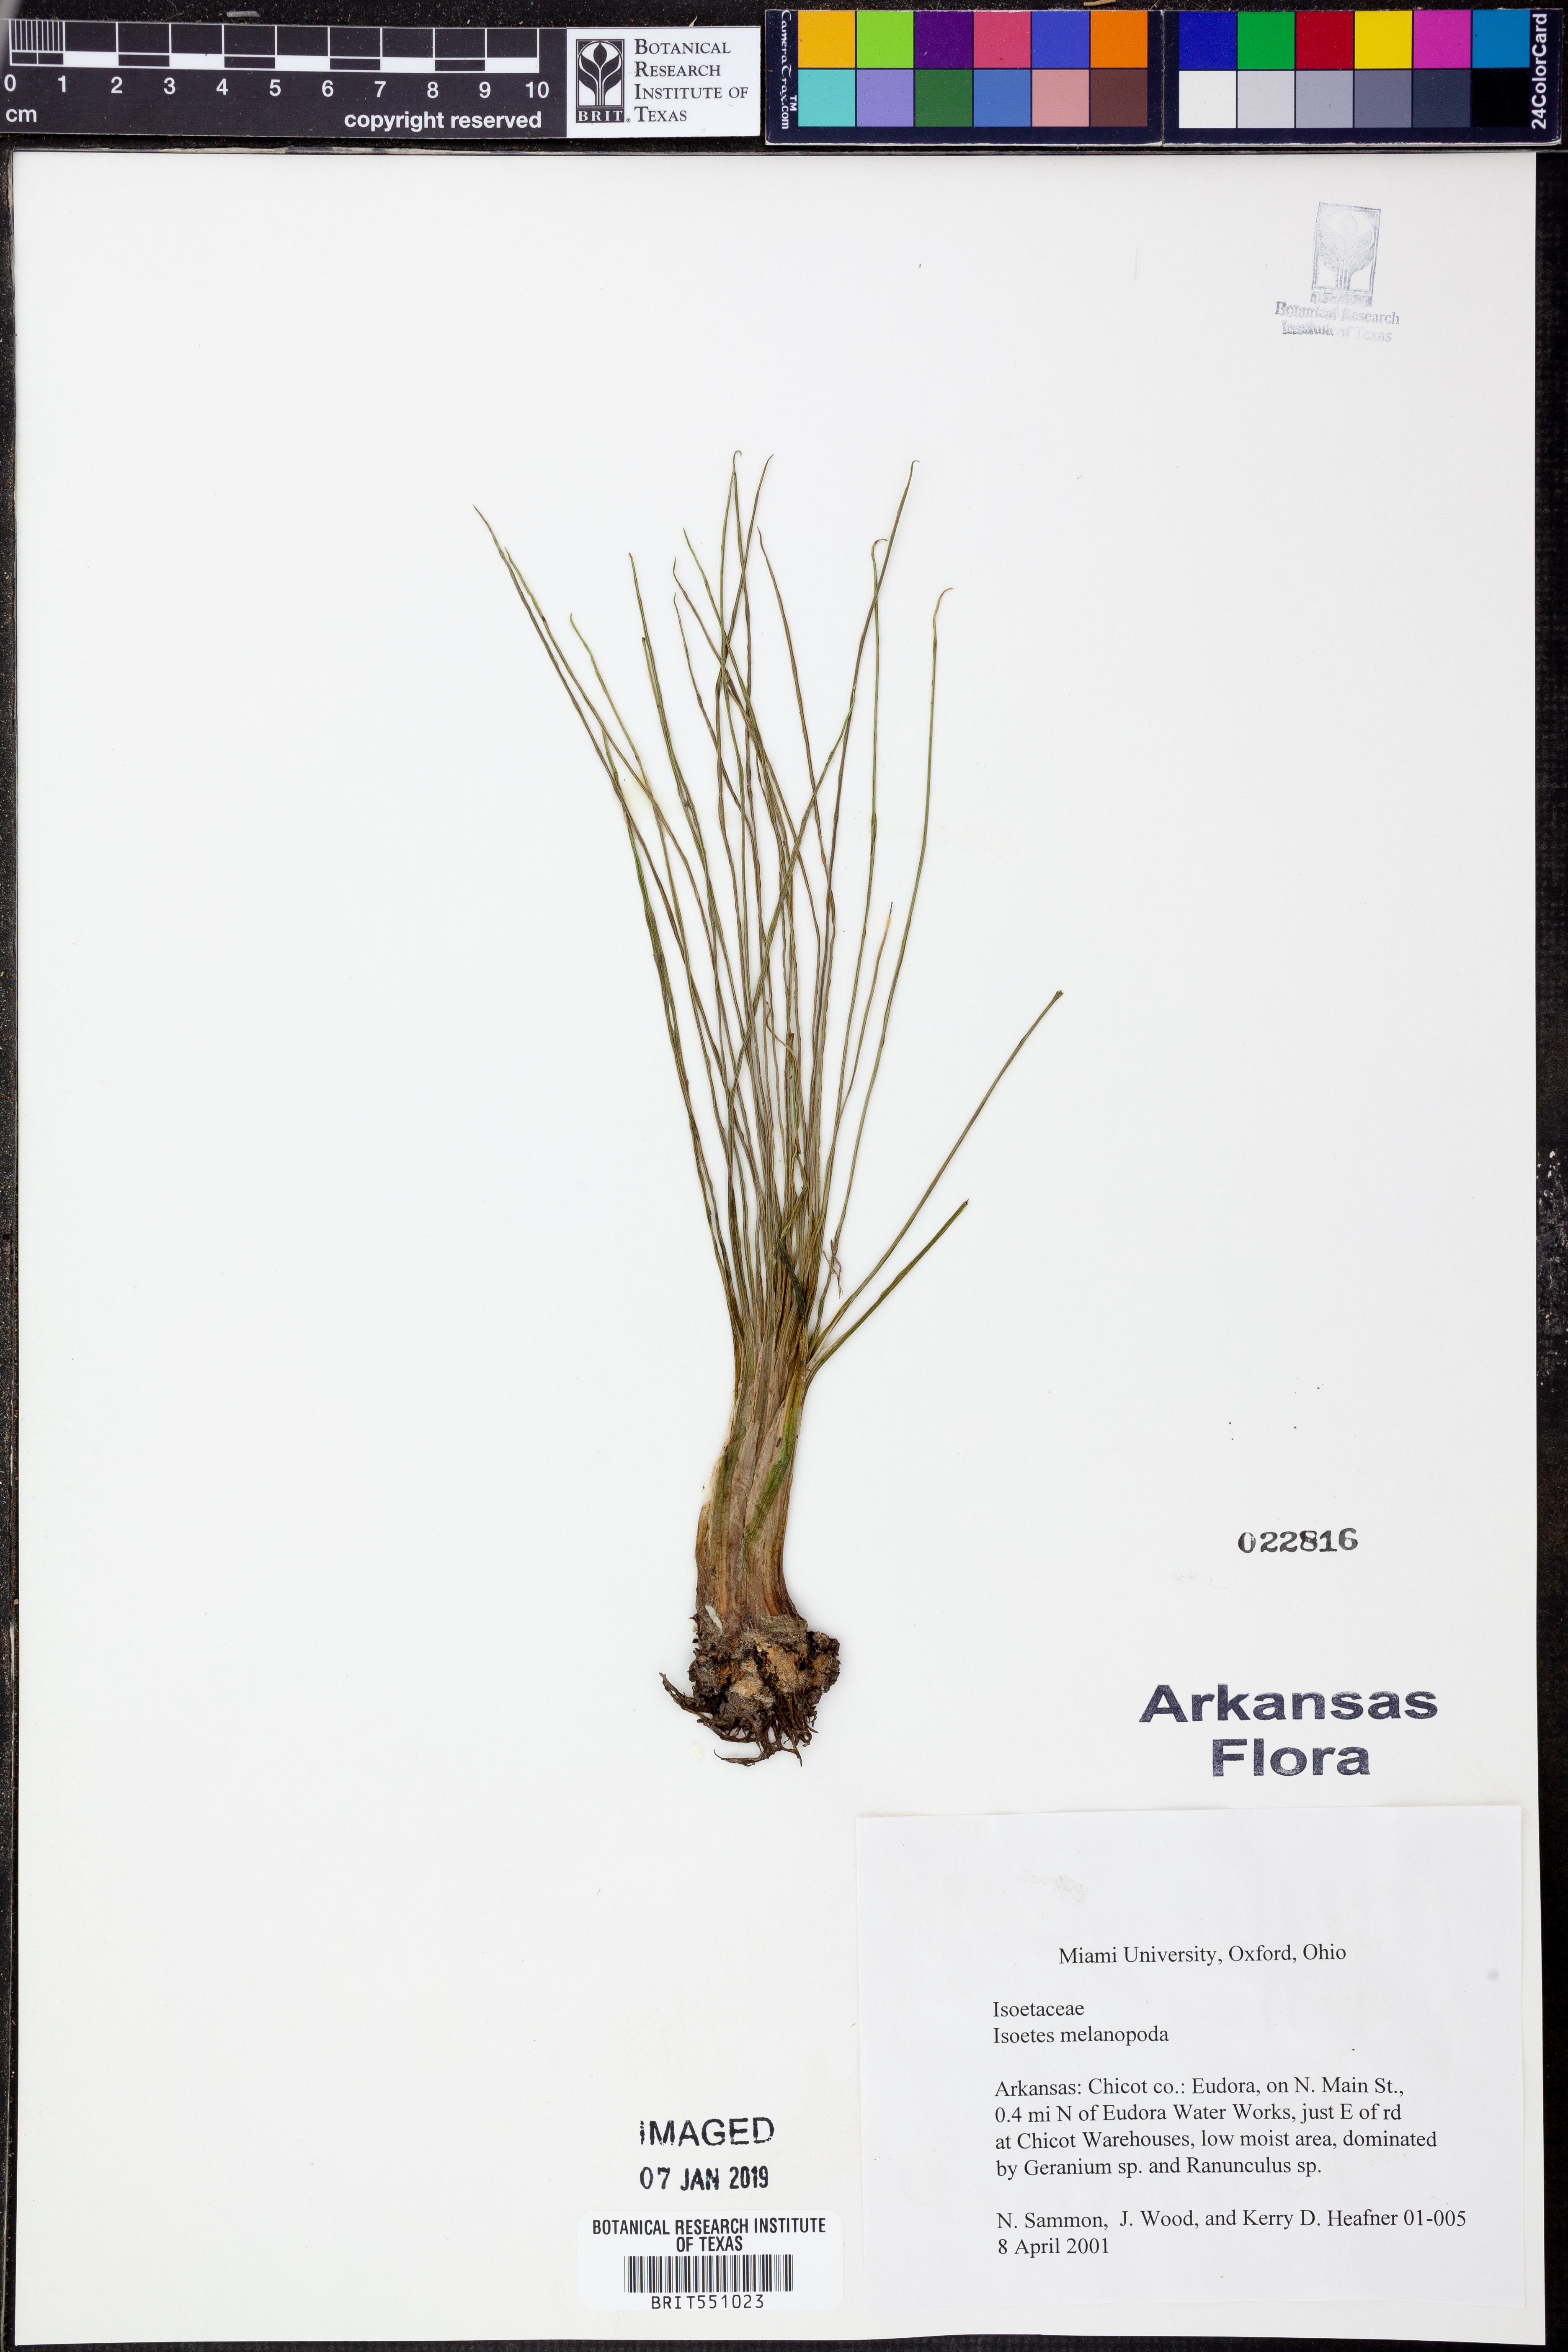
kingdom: Plantae
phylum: Tracheophyta
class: Lycopodiopsida
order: Isoetales
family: Isoetaceae
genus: Isoetes
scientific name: Isoetes melanopoda
